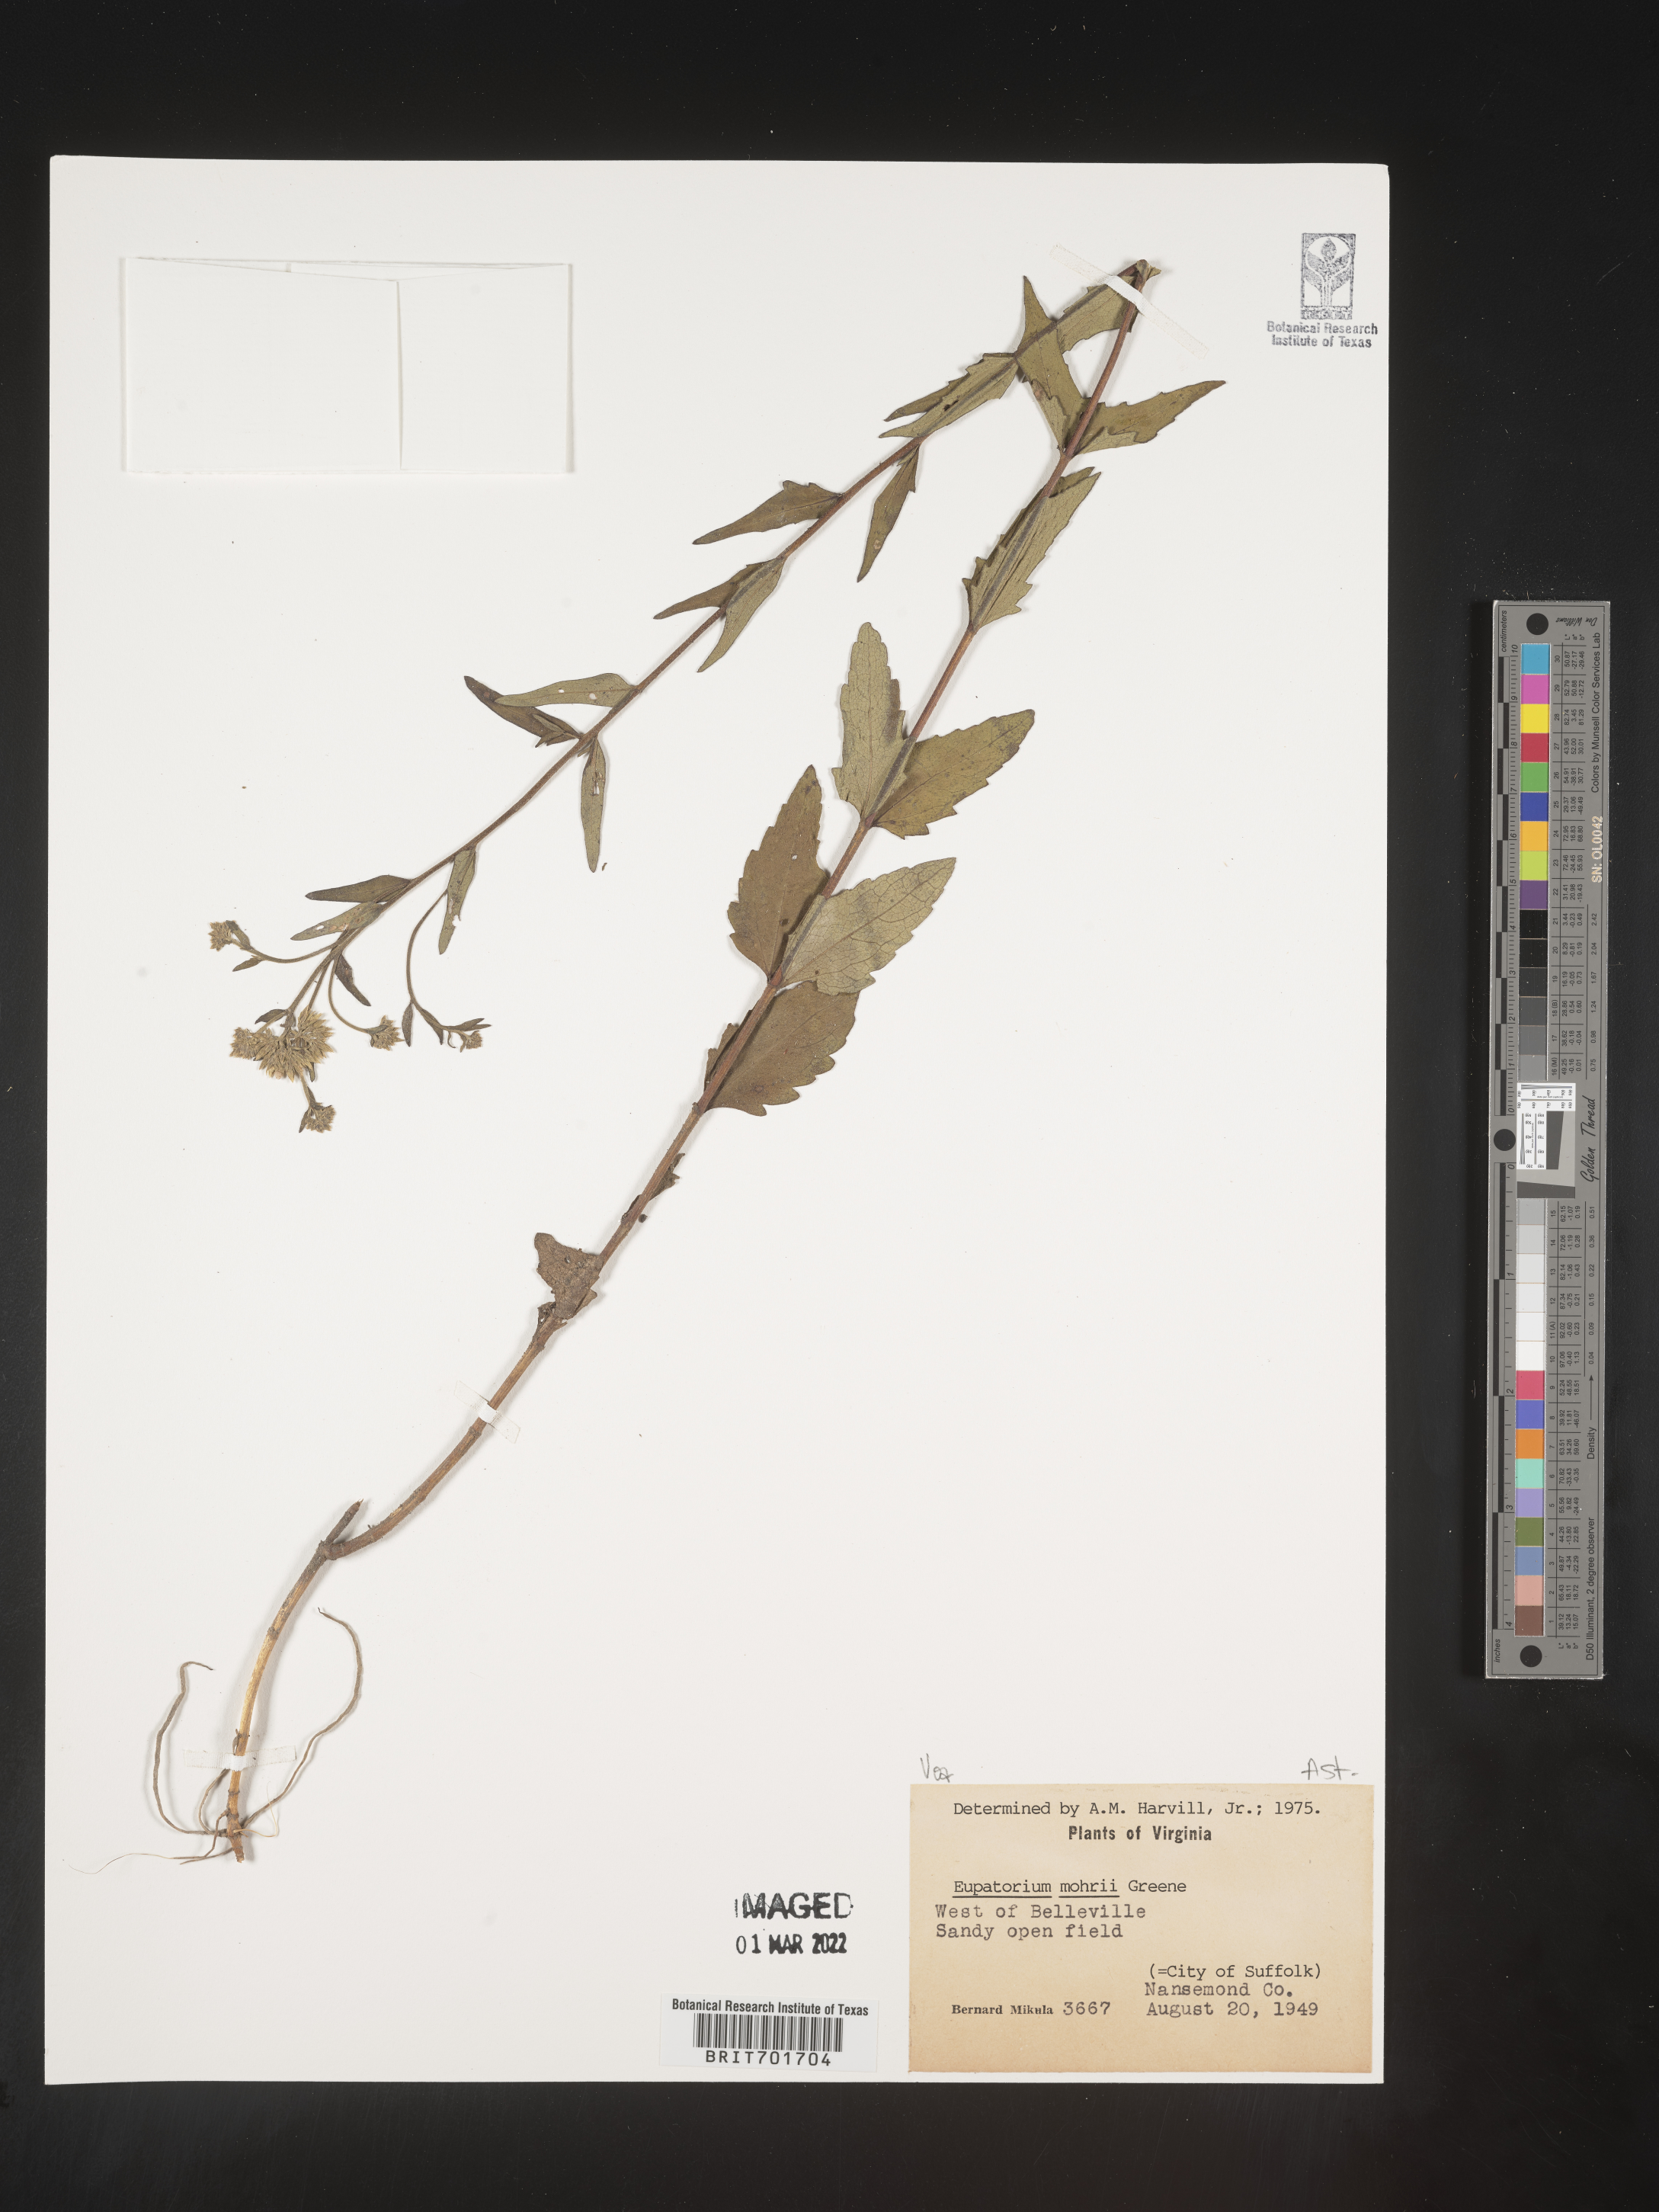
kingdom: Plantae
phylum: Tracheophyta
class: Magnoliopsida
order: Asterales
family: Asteraceae
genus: Eupatorium
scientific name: Eupatorium mohrii
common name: Mohr's thoroughwort
